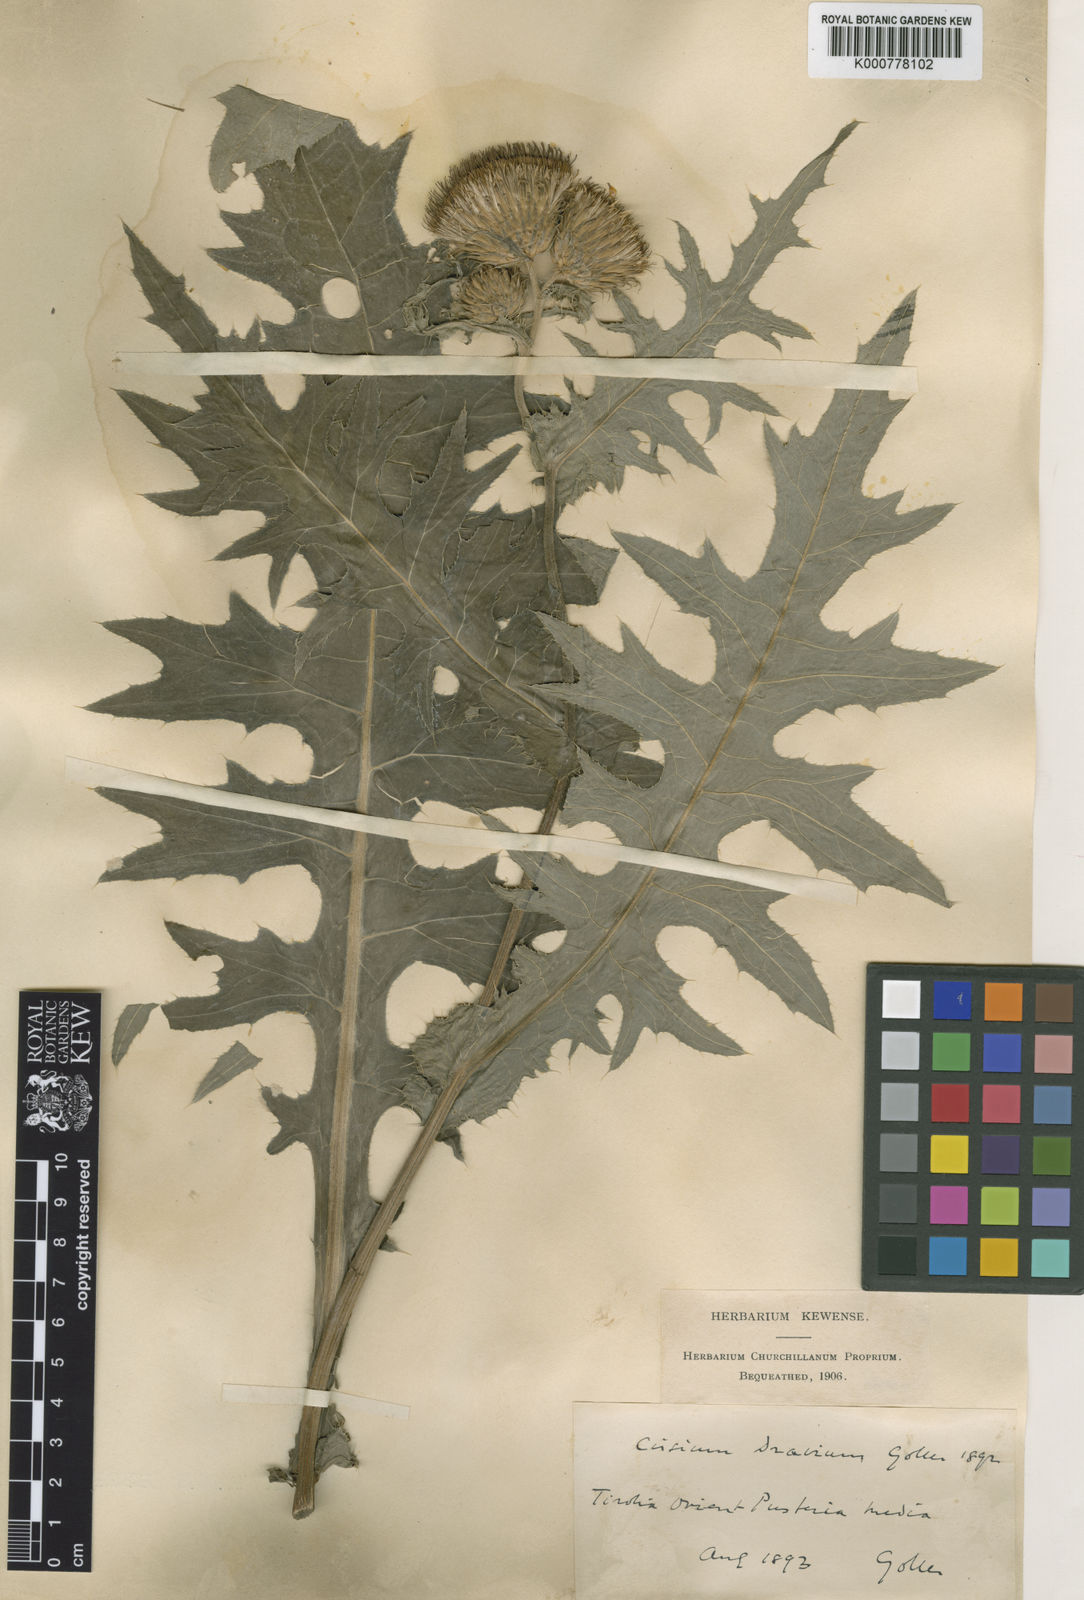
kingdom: Plantae
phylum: Tracheophyta
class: Magnoliopsida
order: Asterales
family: Asteraceae
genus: Cirsium
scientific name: Cirsium
